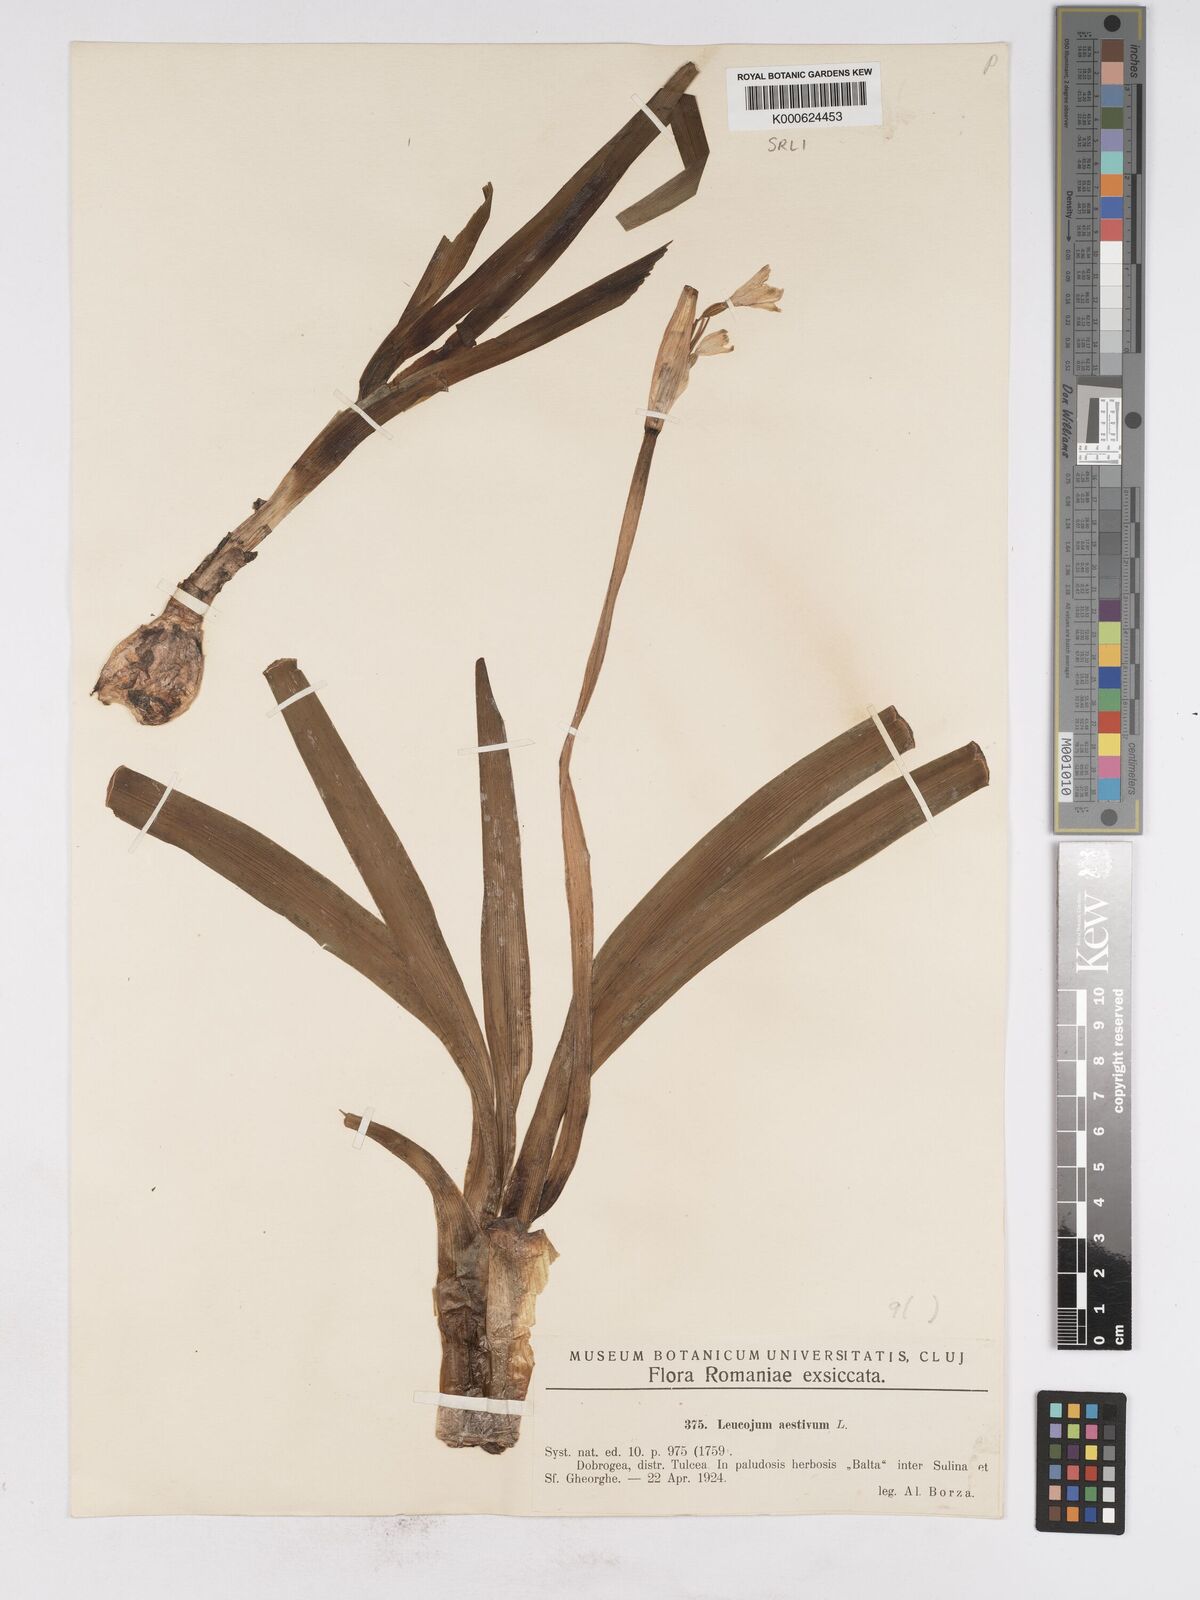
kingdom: Plantae
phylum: Tracheophyta
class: Liliopsida
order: Asparagales
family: Amaryllidaceae
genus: Leucojum
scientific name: Leucojum aestivum
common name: Summer snowflake
